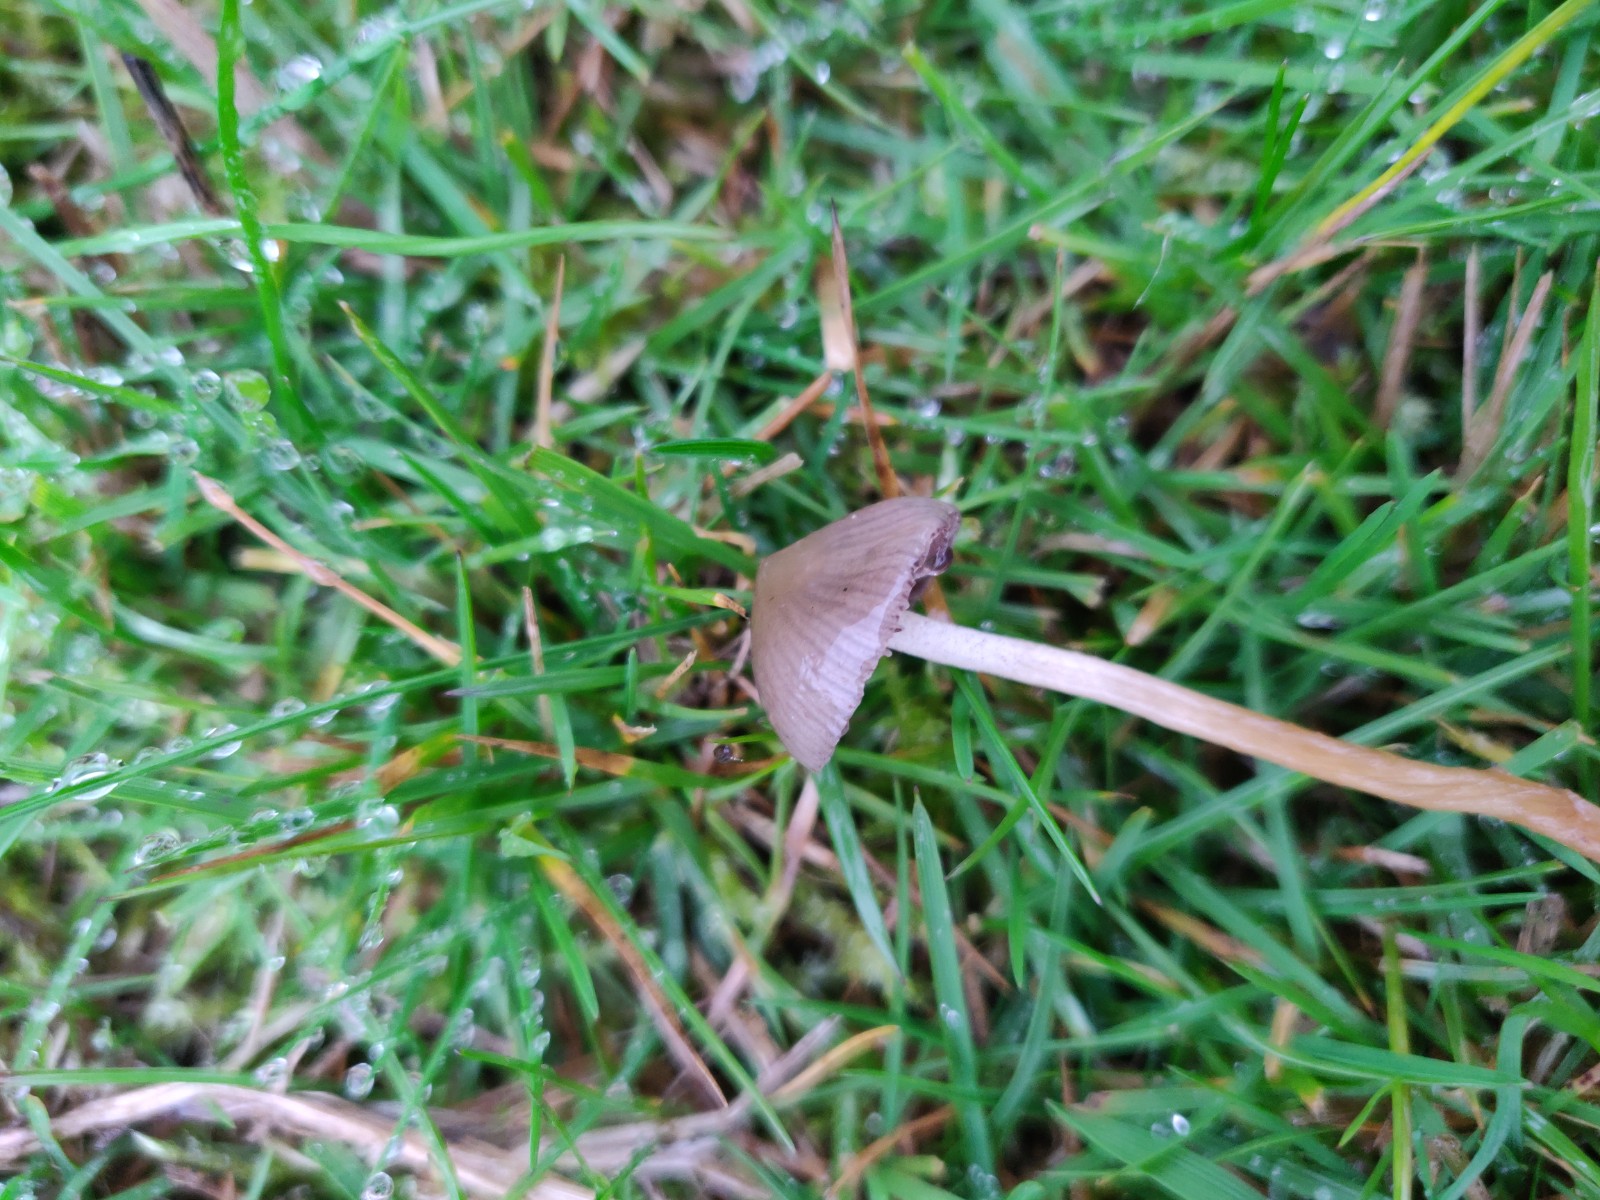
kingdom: Fungi
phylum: Basidiomycota
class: Agaricomycetes
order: Agaricales
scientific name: Agaricales
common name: champignonordenen
